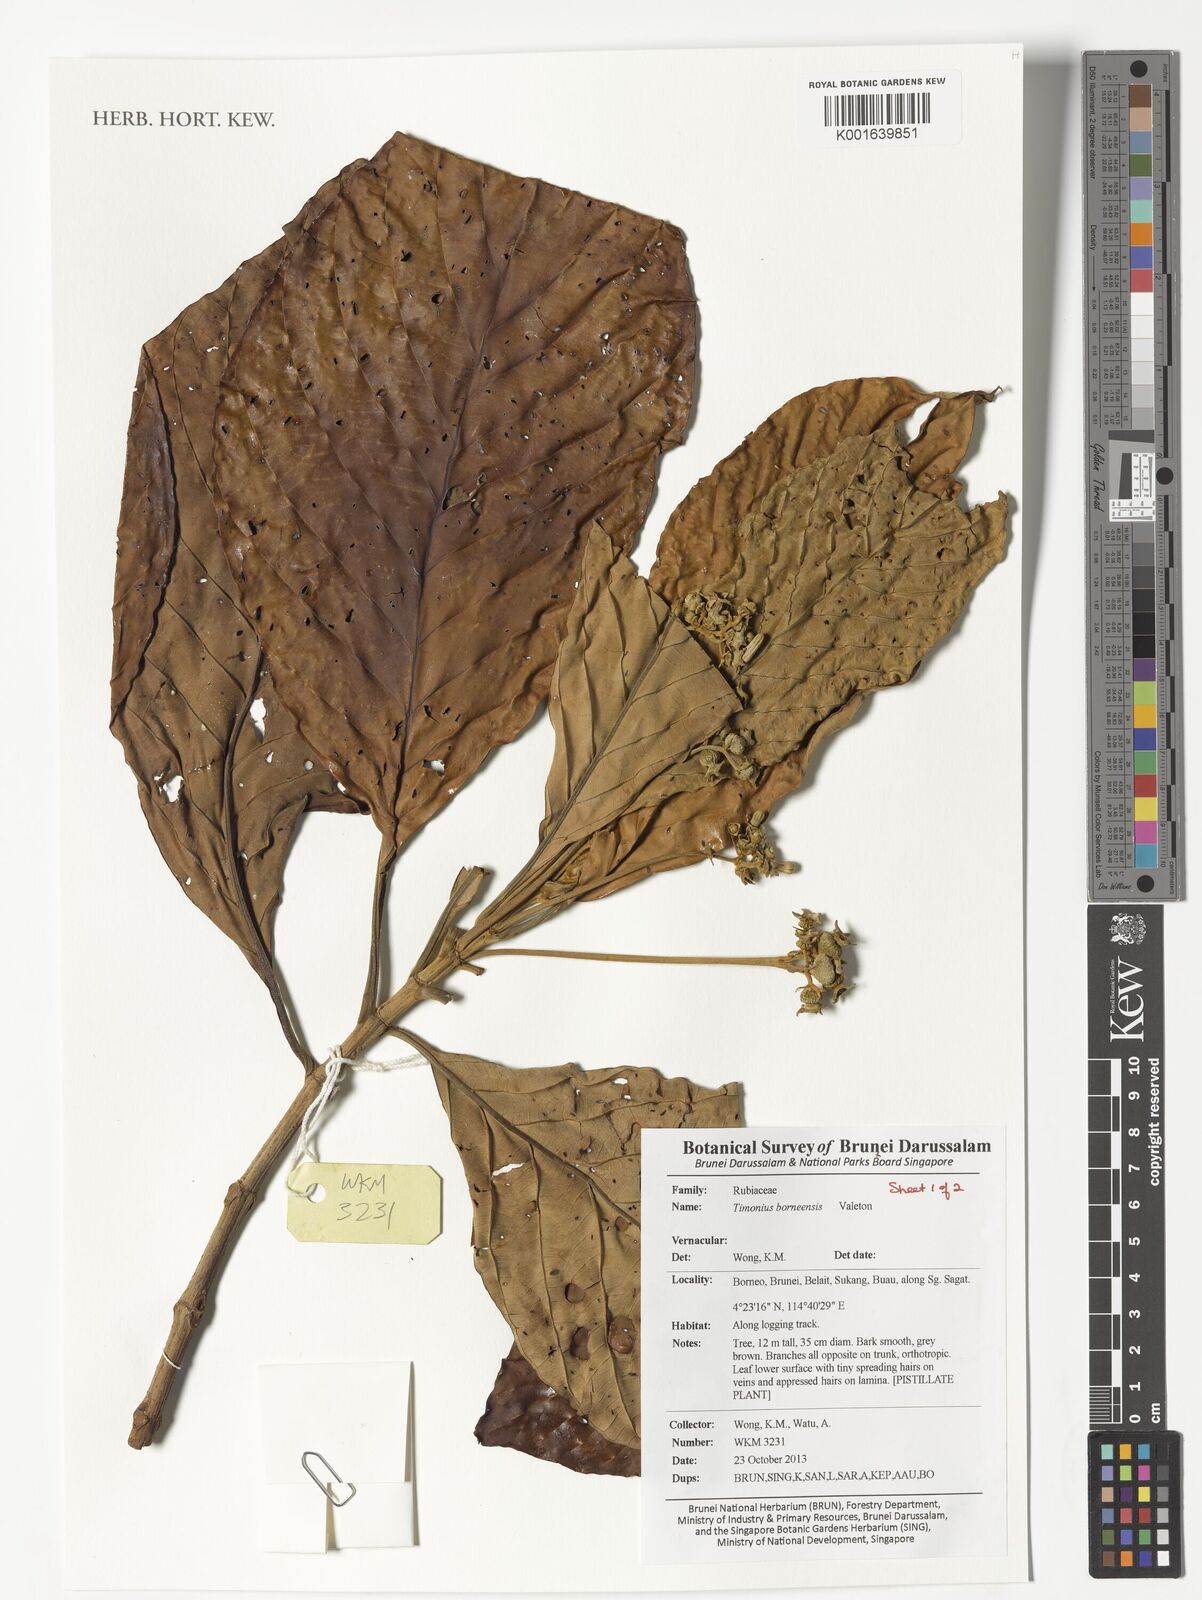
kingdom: Plantae
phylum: Tracheophyta
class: Magnoliopsida
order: Gentianales
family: Rubiaceae
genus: Timonius
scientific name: Timonius borneensis
